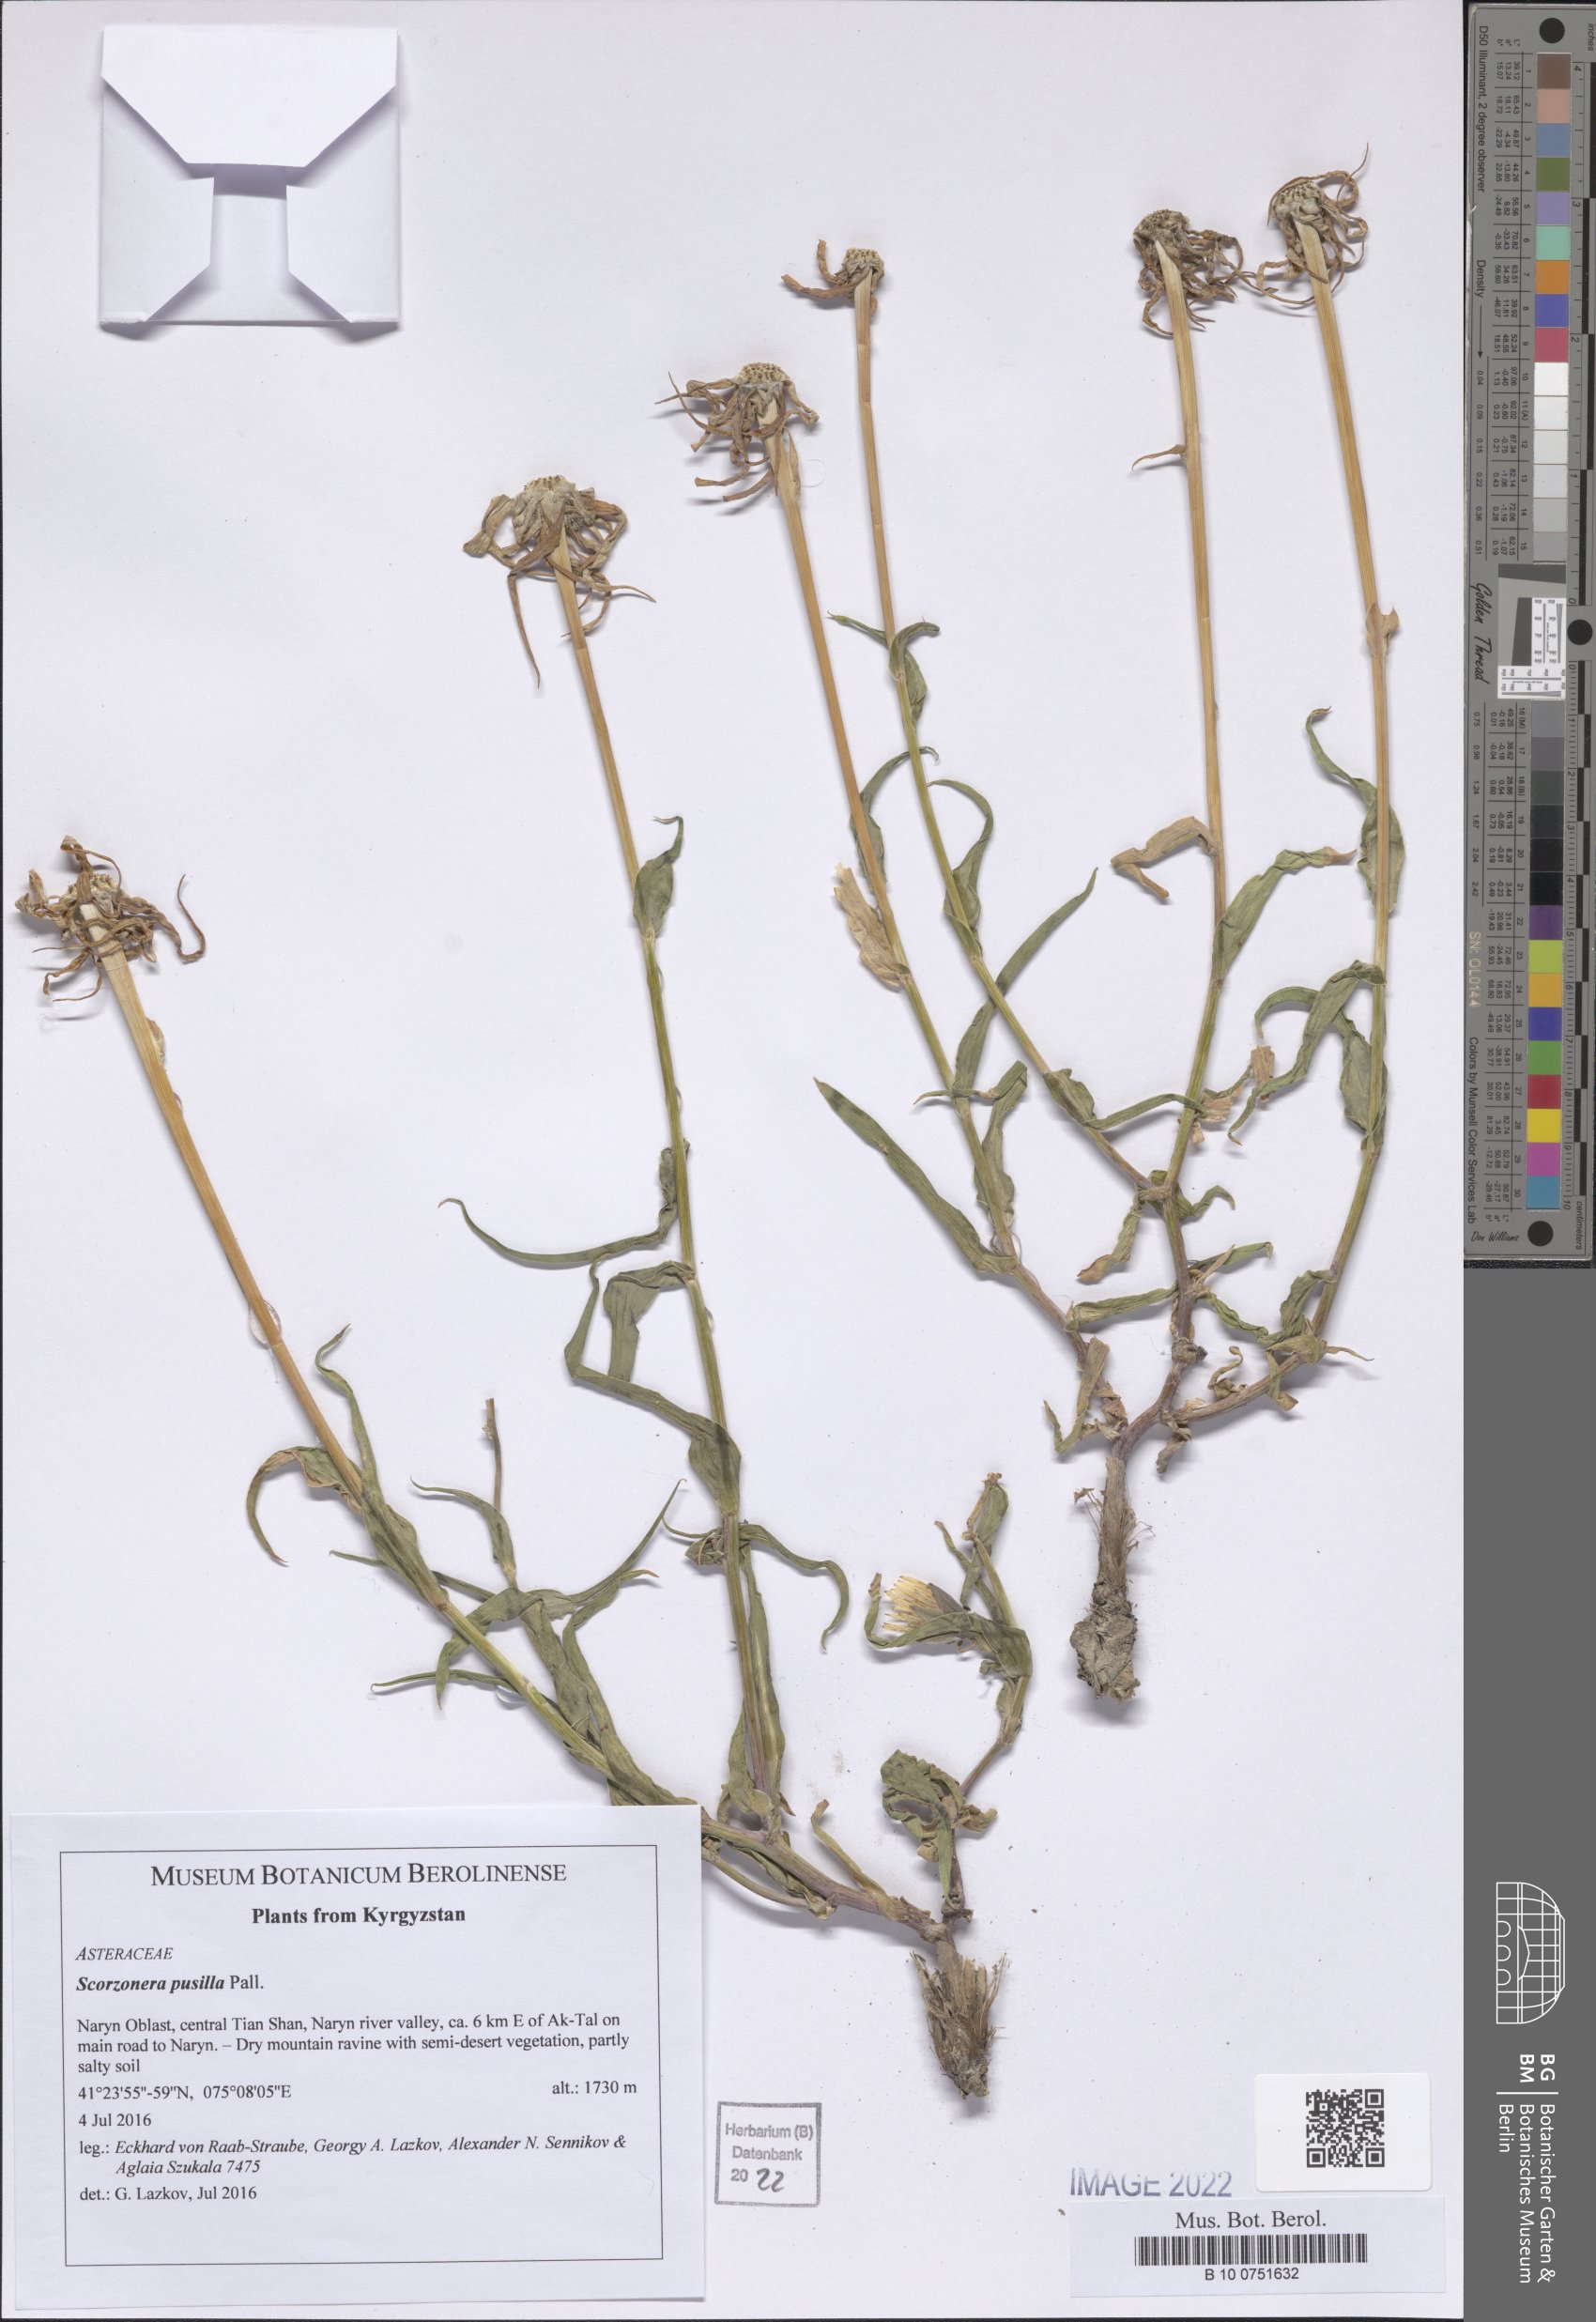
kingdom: Plantae
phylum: Tracheophyta
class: Magnoliopsida
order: Asterales
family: Asteraceae
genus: Takhtajaniantha
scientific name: Takhtajaniantha pusilla
